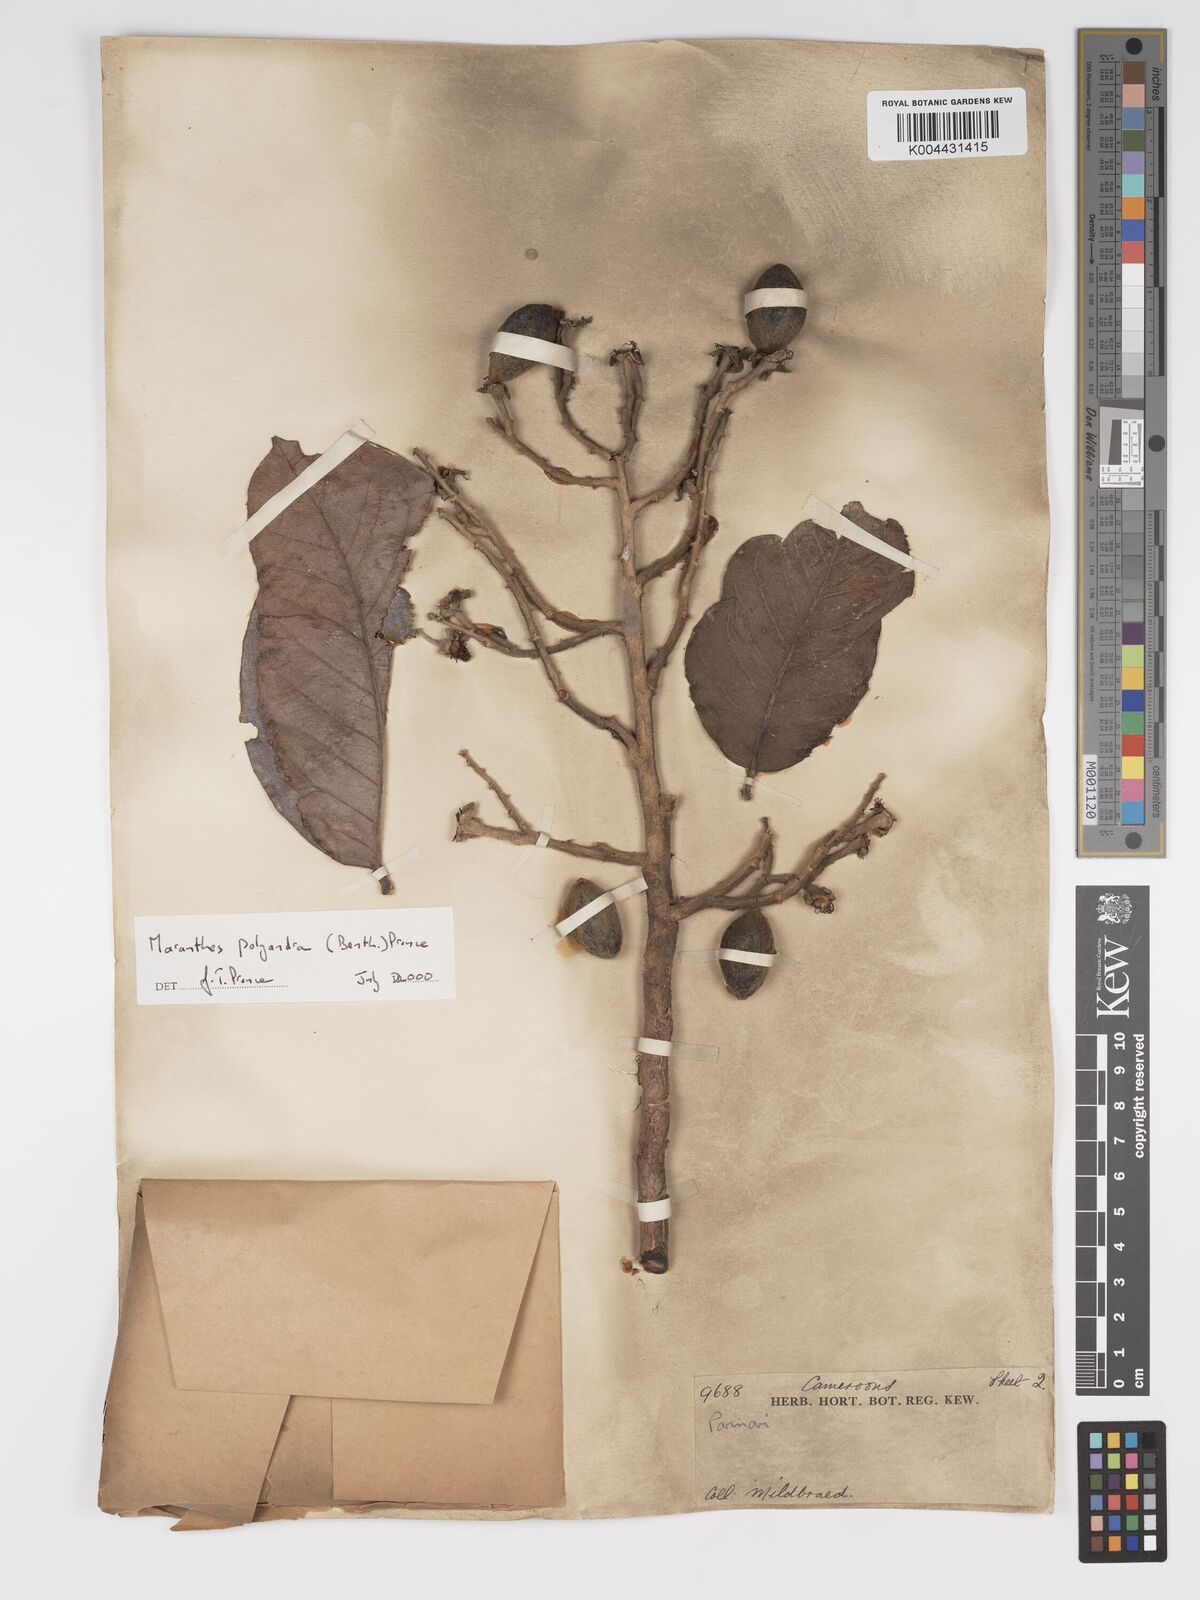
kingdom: Plantae
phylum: Tracheophyta
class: Magnoliopsida
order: Malpighiales
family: Chrysobalanaceae
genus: Maranthes
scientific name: Maranthes polyandra
